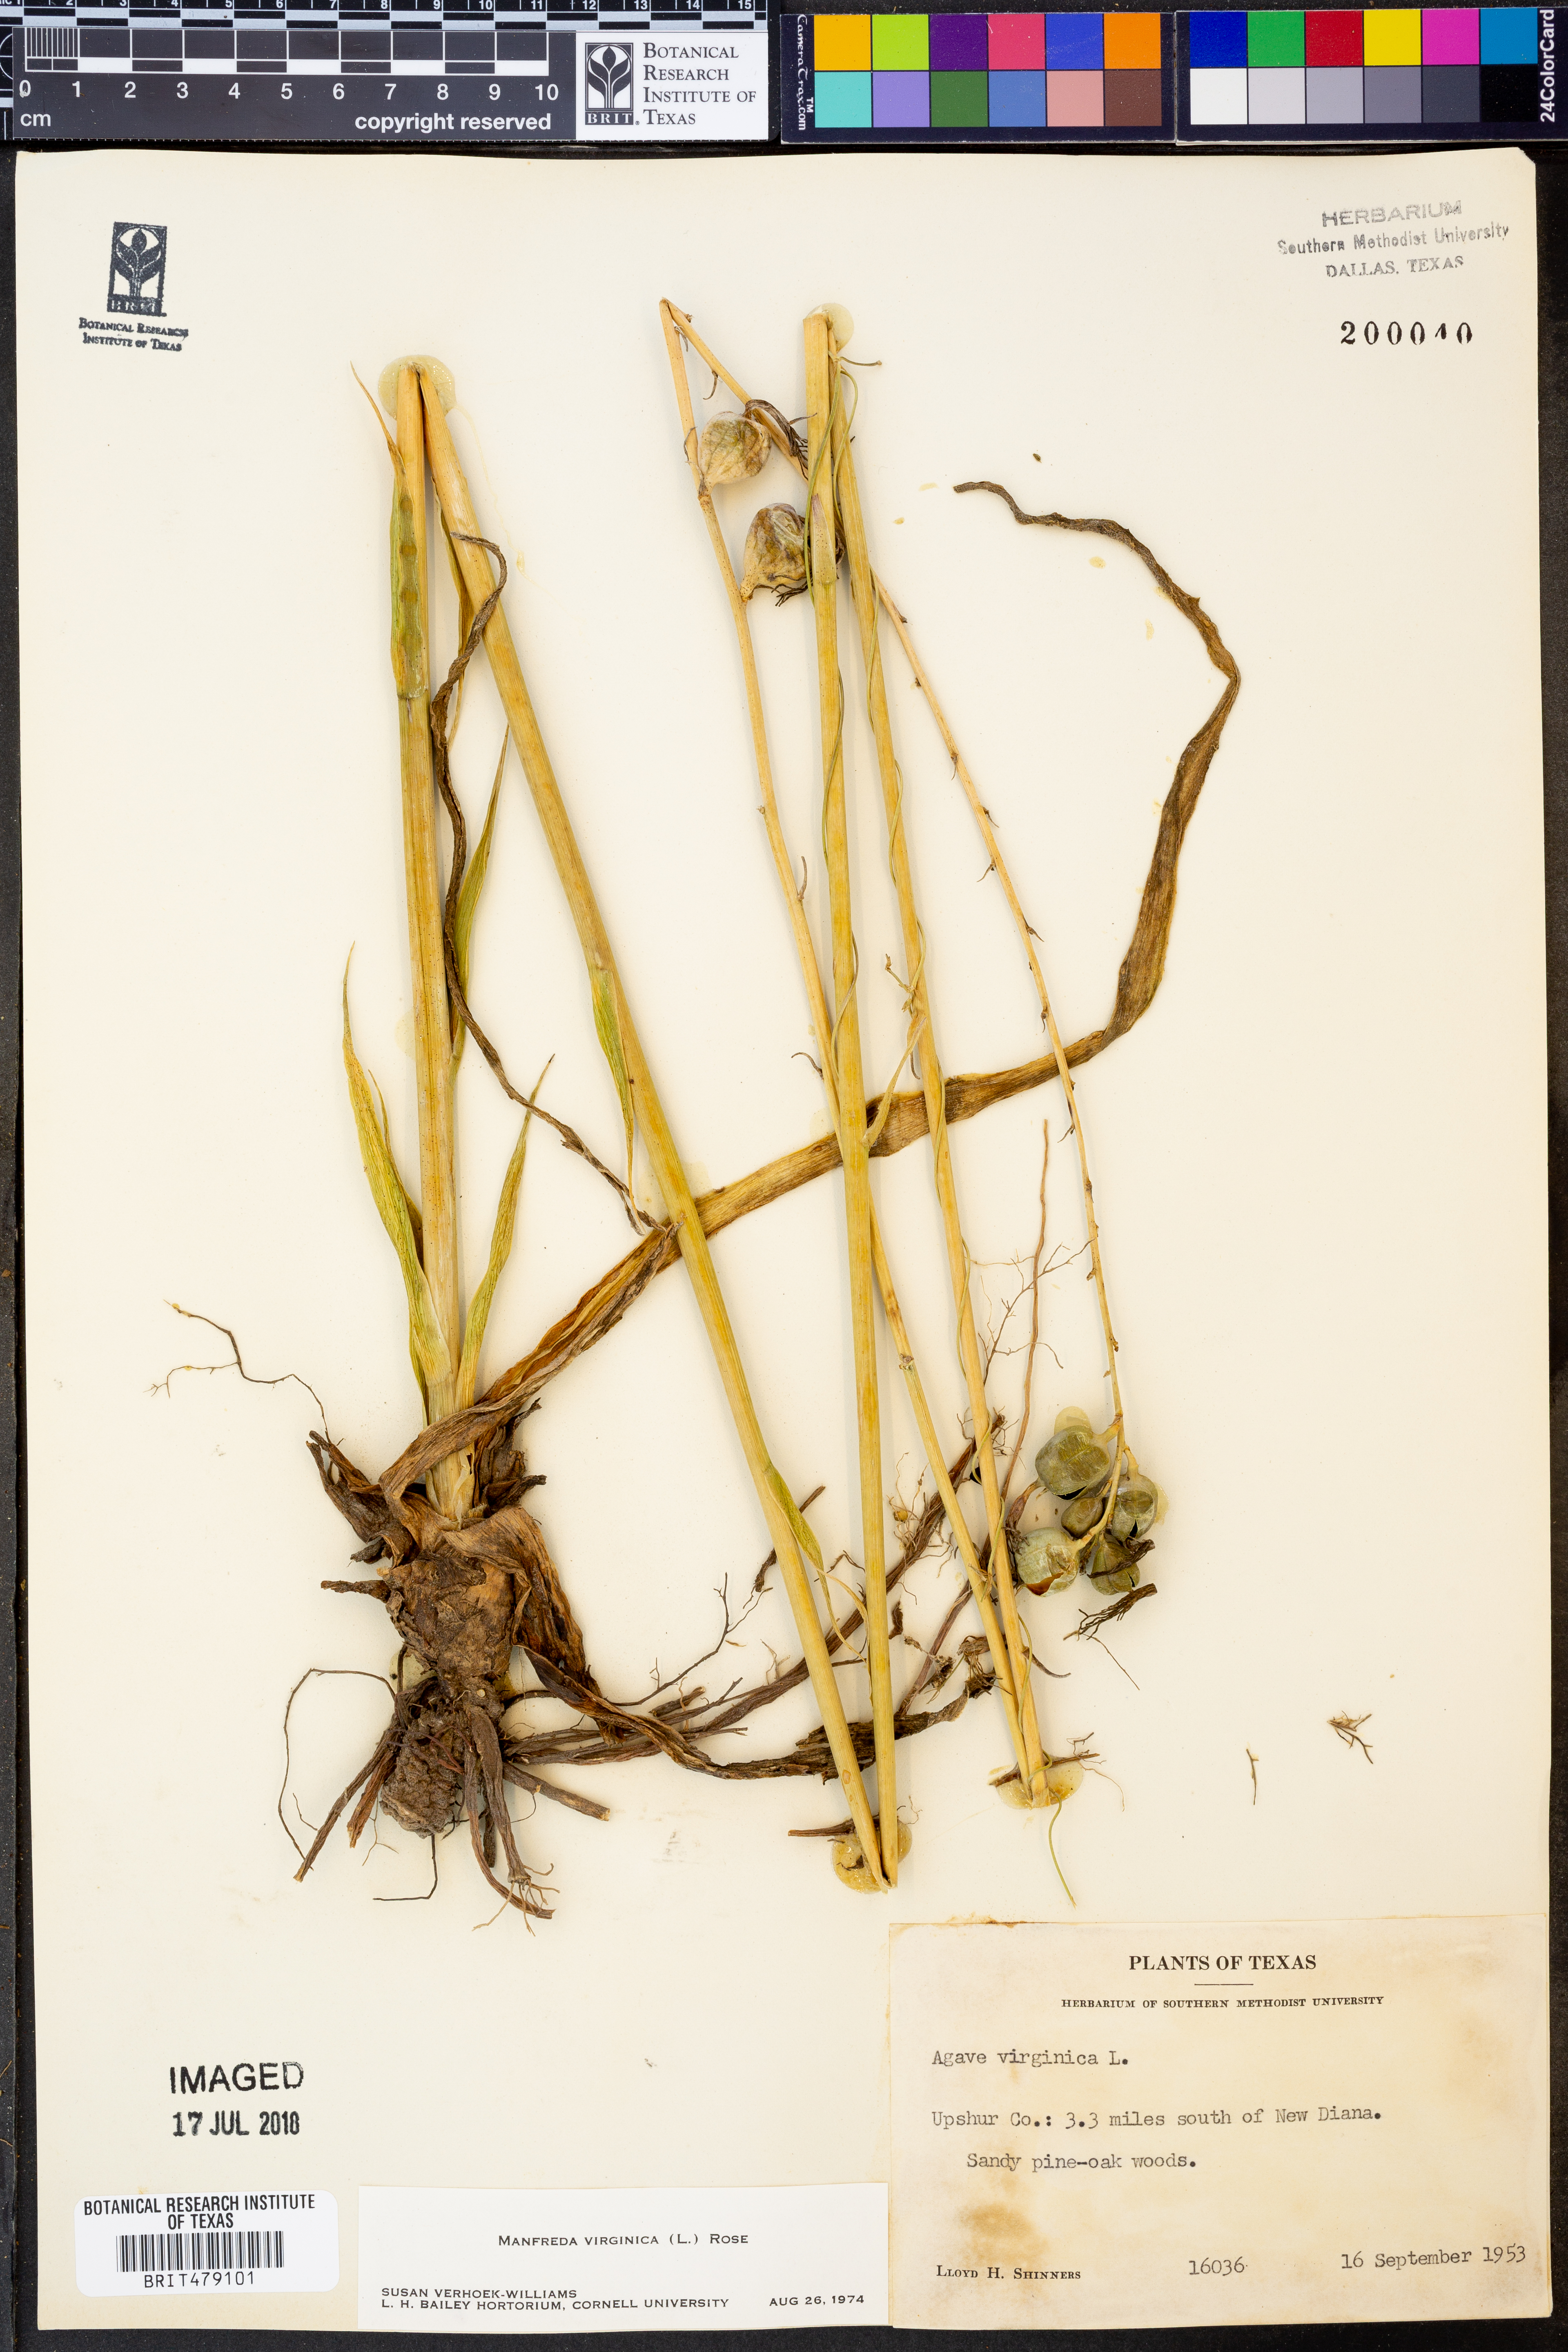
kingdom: Plantae
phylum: Tracheophyta
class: Liliopsida
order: Asparagales
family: Asparagaceae
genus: Agave
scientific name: Agave virginica
